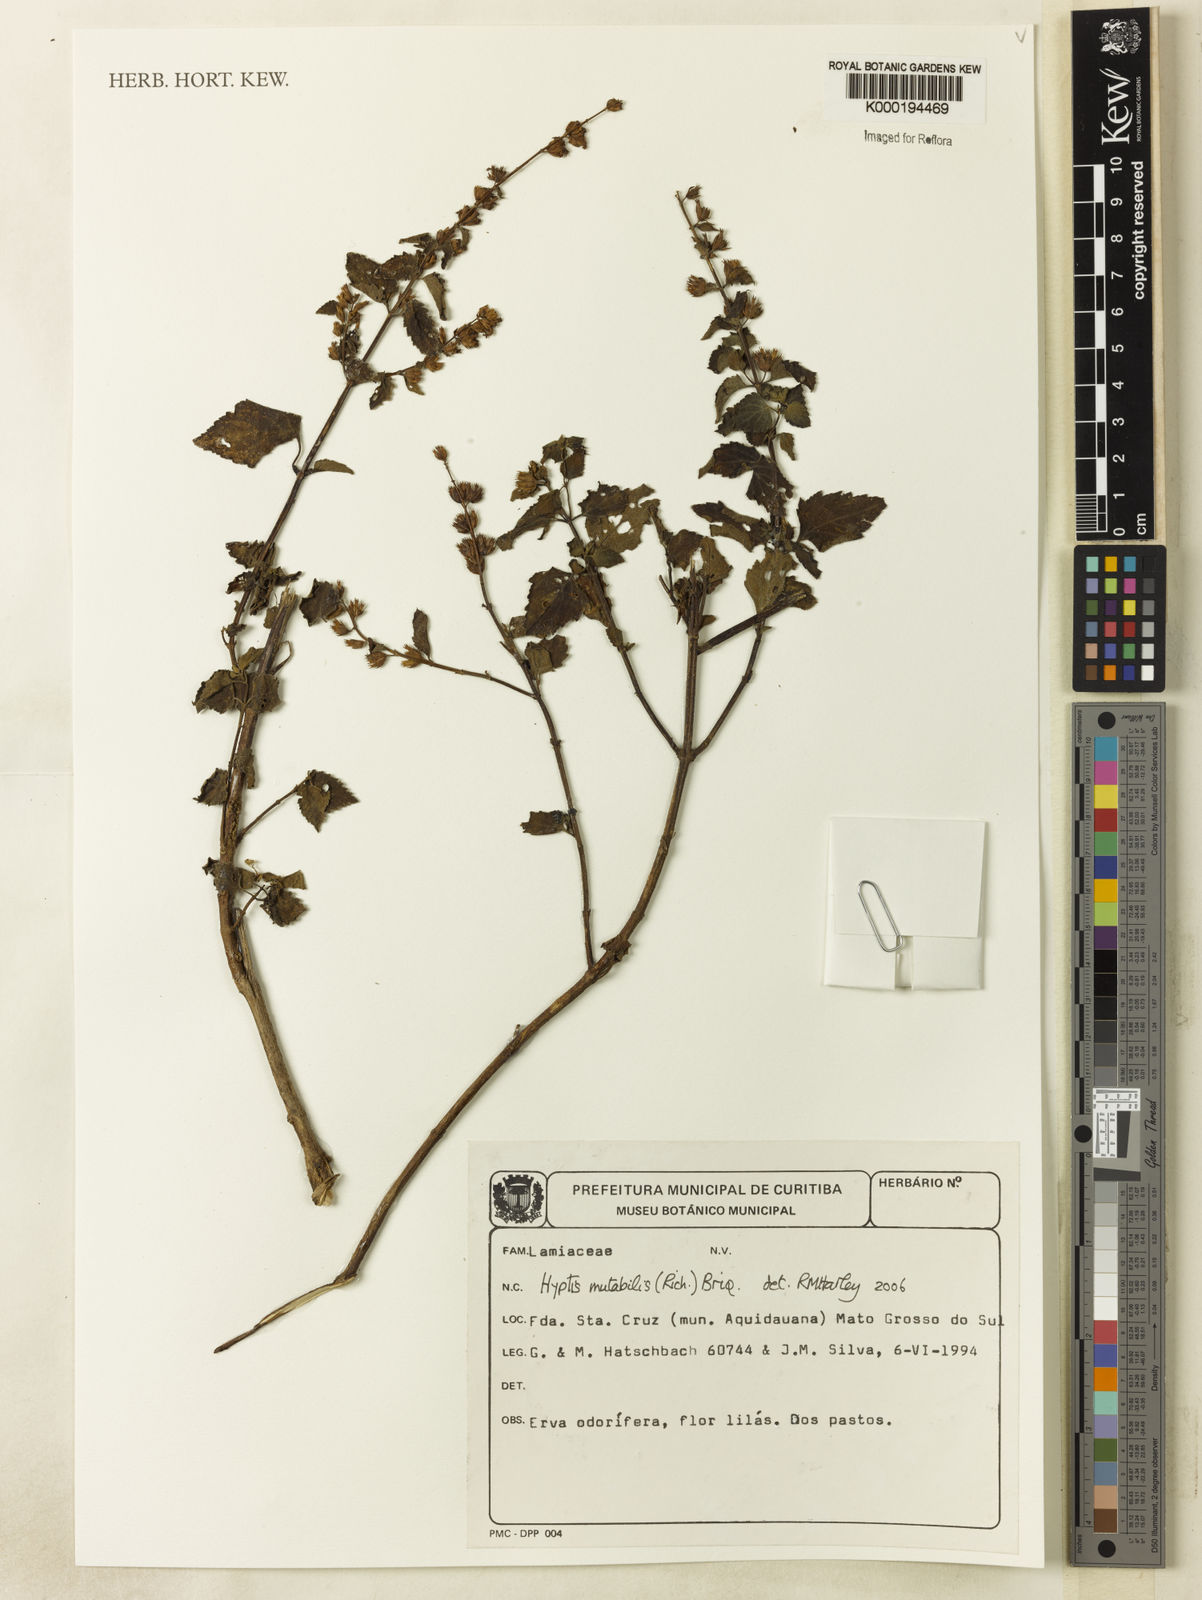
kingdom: Plantae
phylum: Tracheophyta
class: Magnoliopsida
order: Lamiales
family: Lamiaceae
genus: Cantinoa
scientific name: Cantinoa mutabilis
